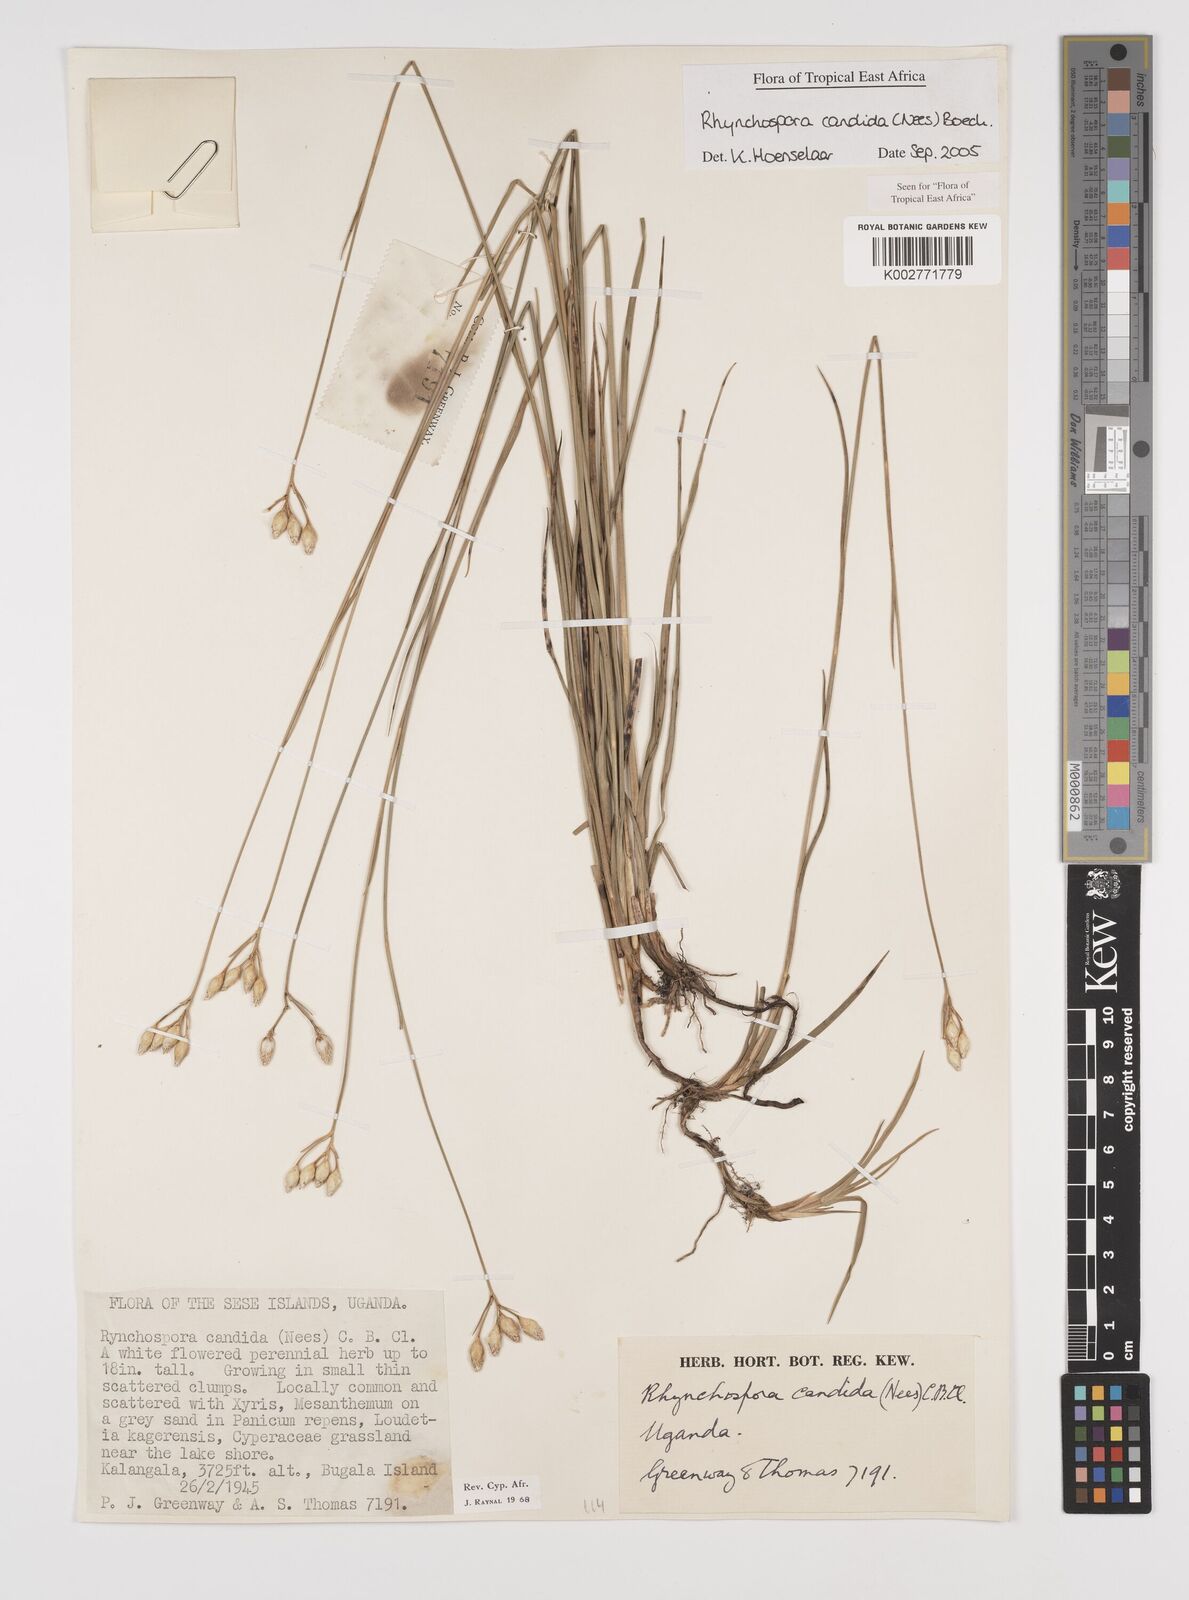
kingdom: Plantae
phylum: Tracheophyta
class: Liliopsida
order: Poales
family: Cyperaceae
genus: Rhynchospora
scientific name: Rhynchospora candida
